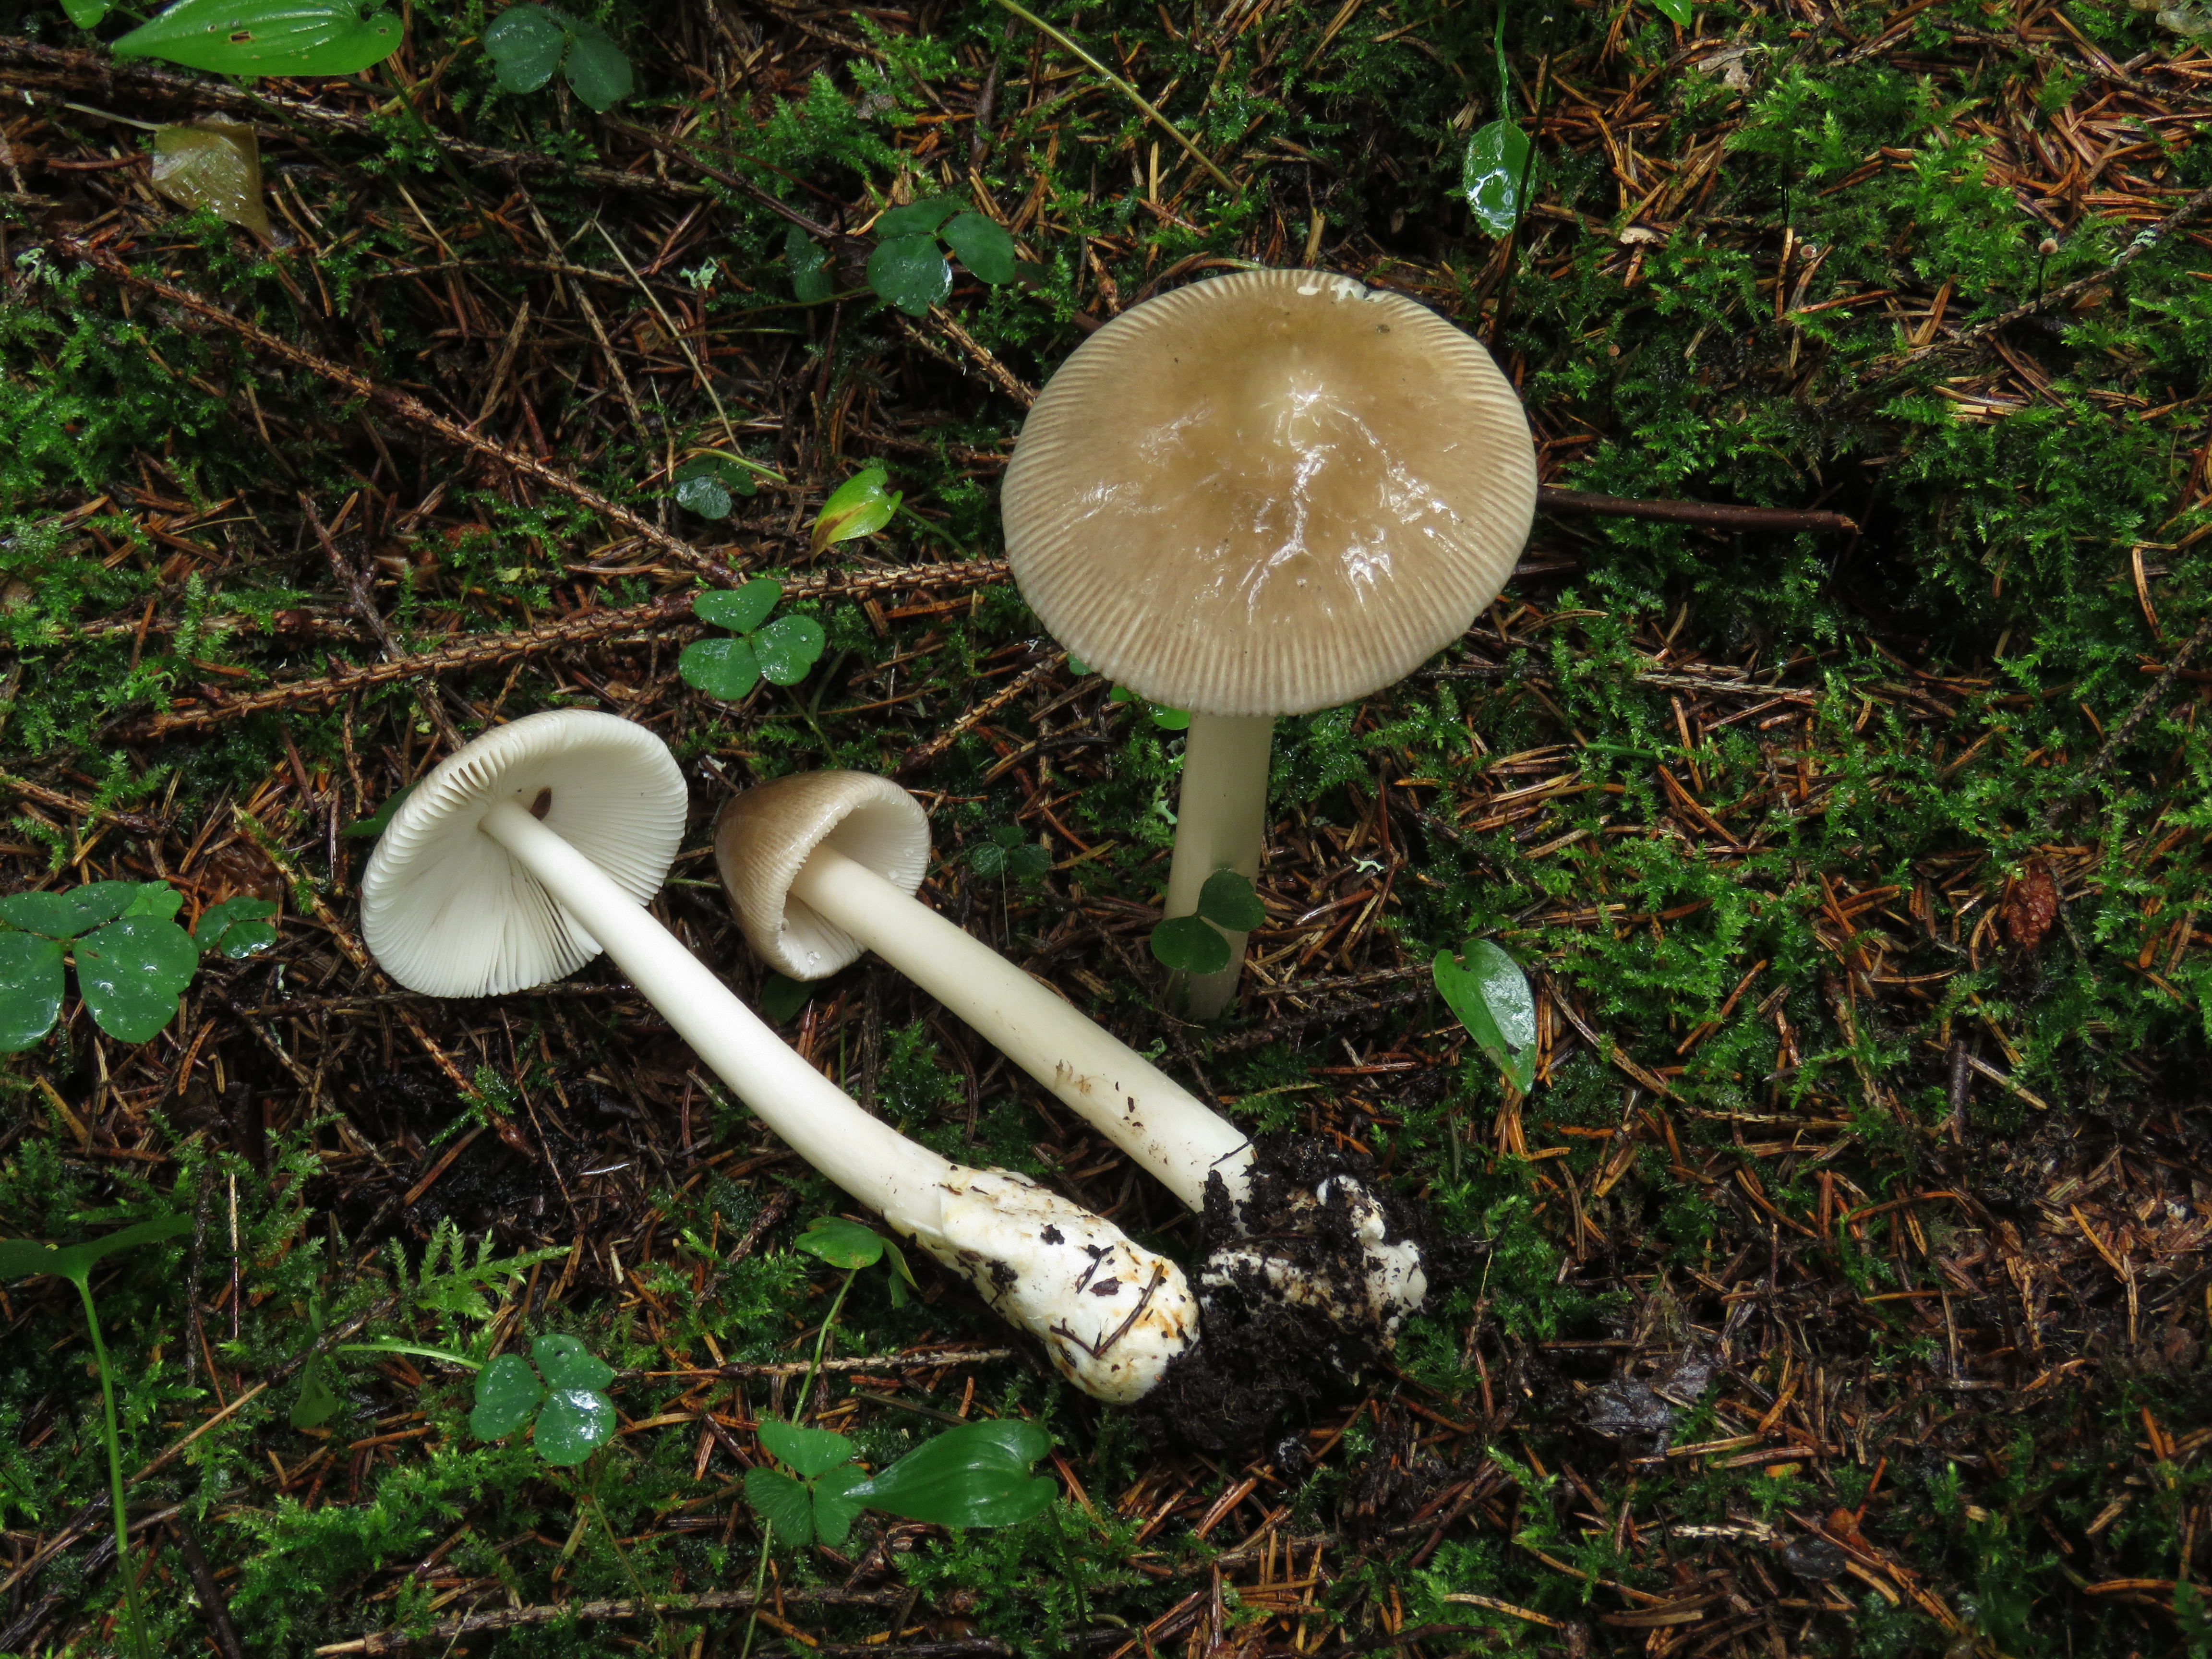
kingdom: Fungi
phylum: Basidiomycota
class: Agaricomycetes
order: Agaricales
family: Amanitaceae
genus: Amanita
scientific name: Amanita brunneofuliginea
